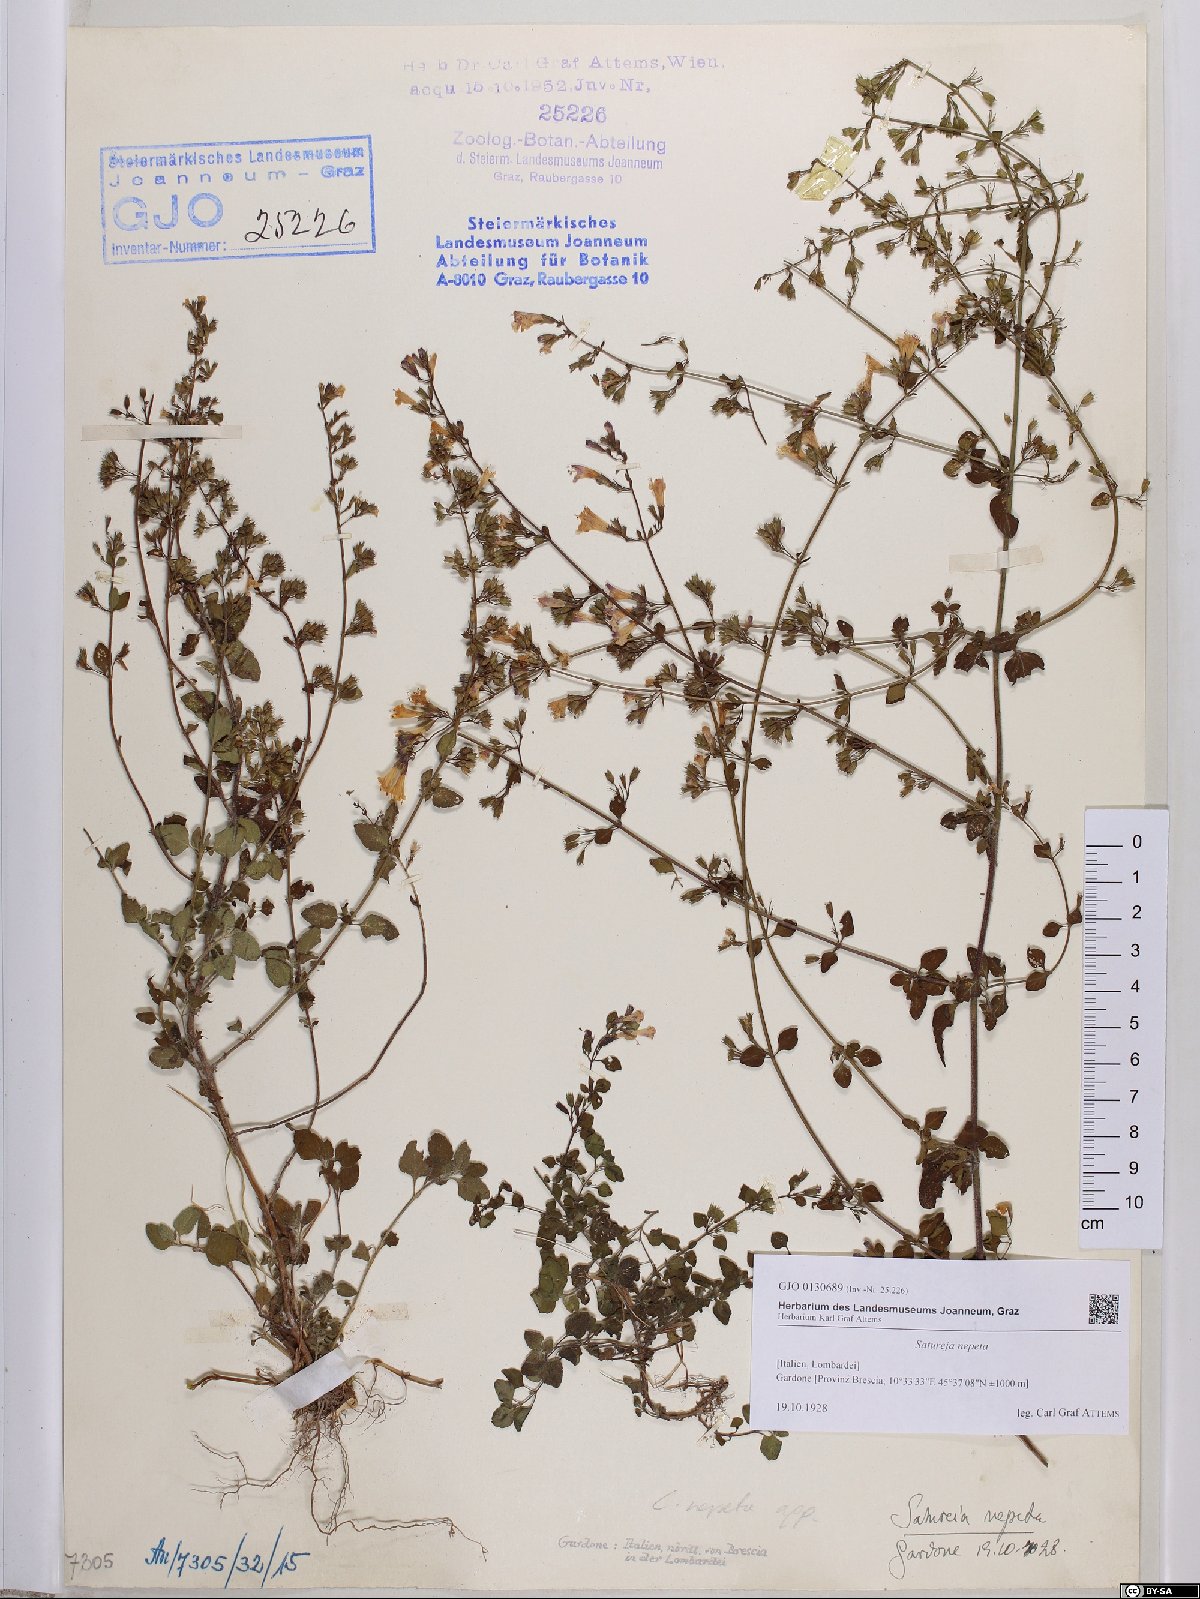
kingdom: Plantae
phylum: Tracheophyta
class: Magnoliopsida
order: Lamiales
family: Lamiaceae
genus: Clinopodium
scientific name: Clinopodium nepeta
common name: Lesser calamint
